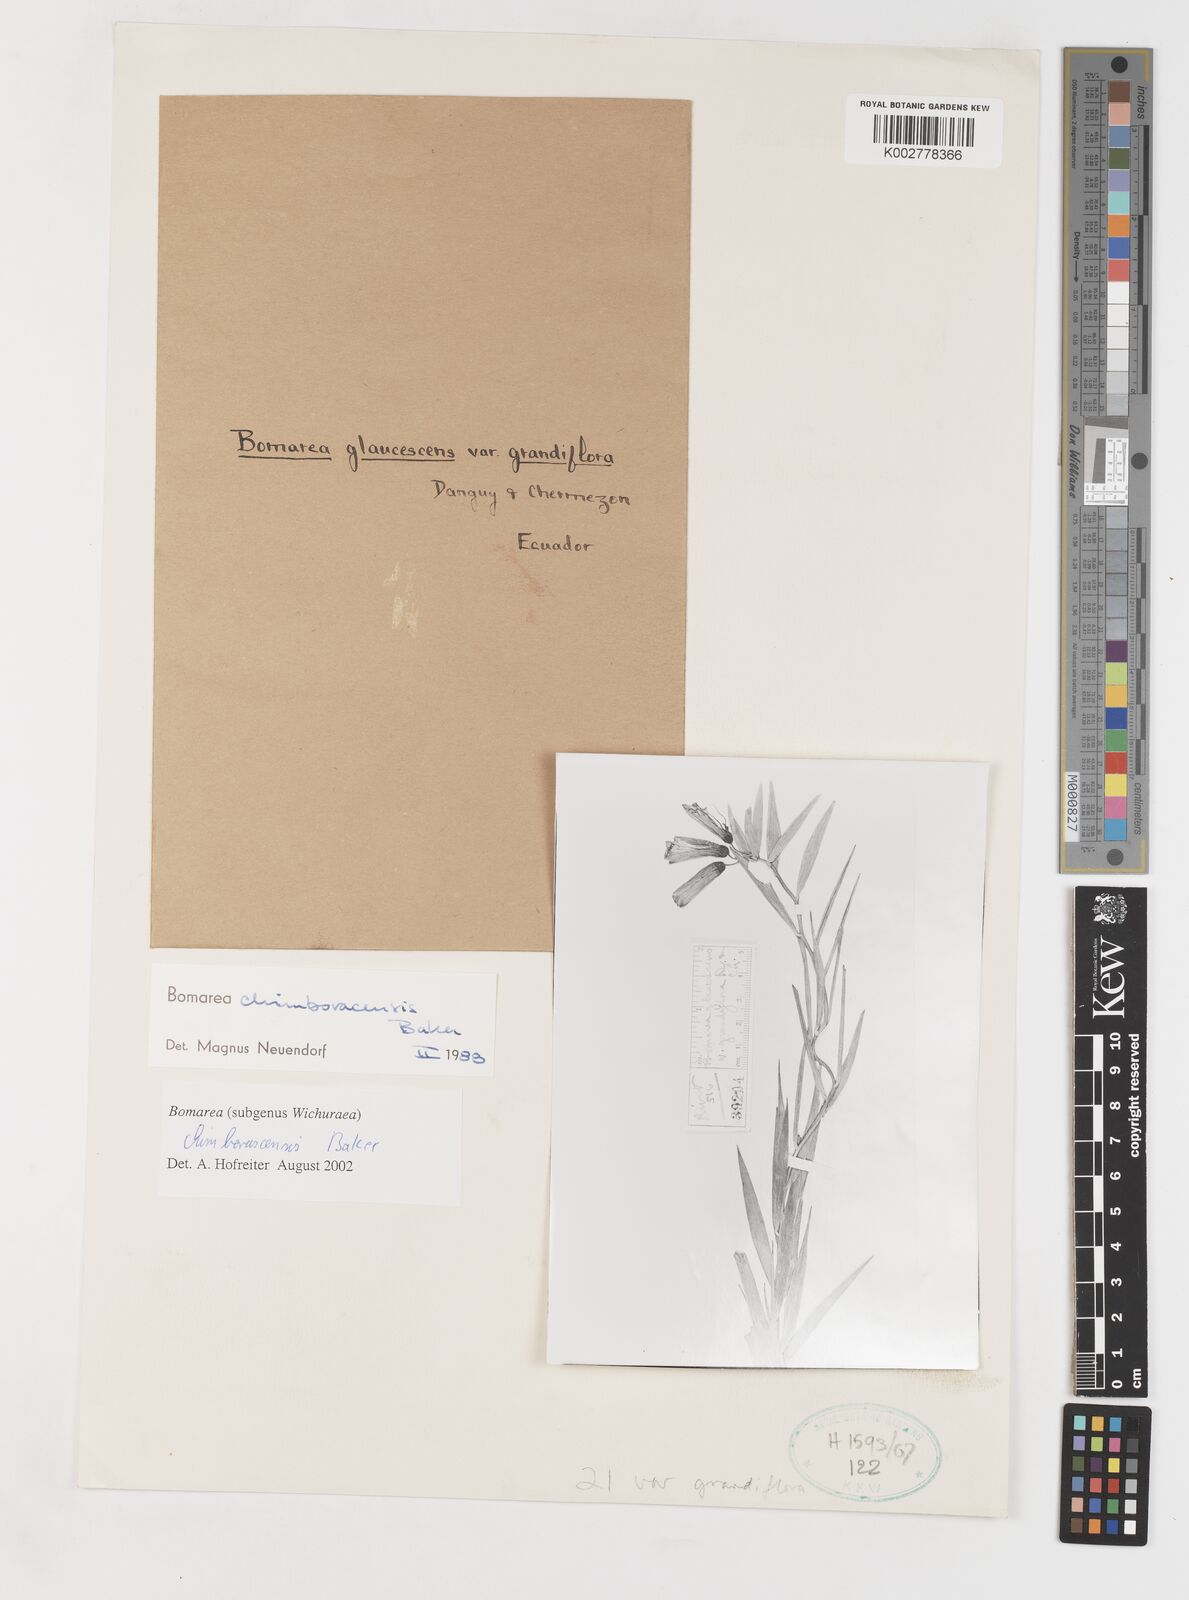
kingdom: Plantae
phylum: Tracheophyta
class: Liliopsida
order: Liliales
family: Alstroemeriaceae
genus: Bomarea
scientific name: Bomarea chimboracensis
